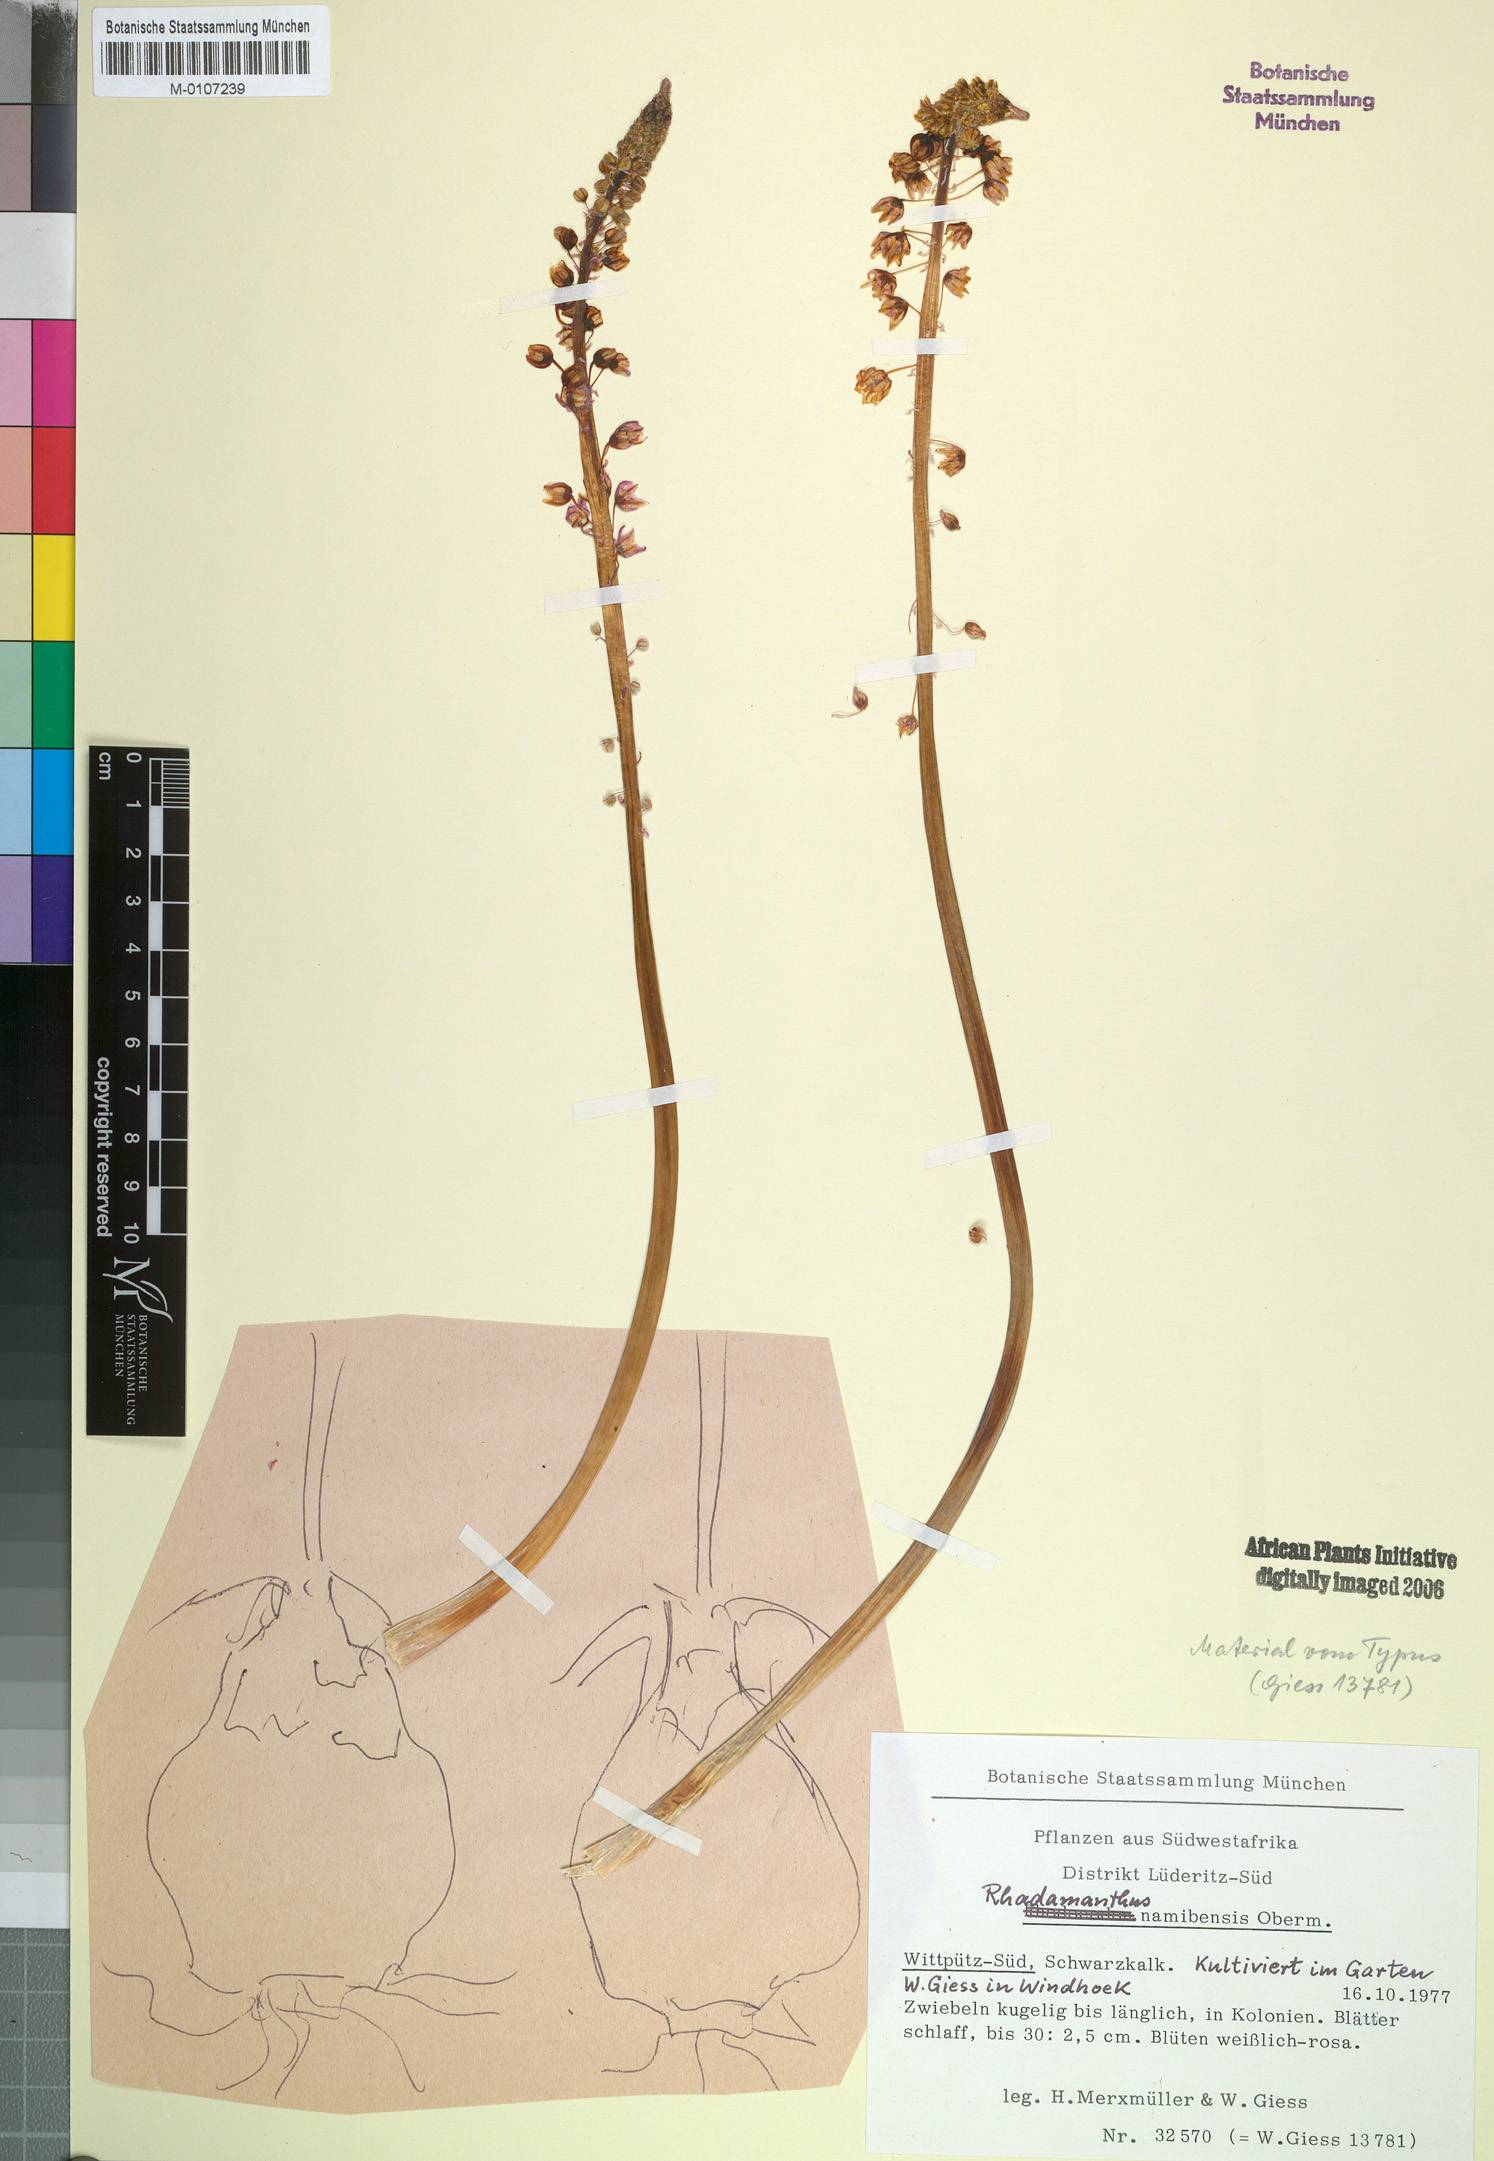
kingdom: Plantae
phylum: Tracheophyta
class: Liliopsida
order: Asparagales
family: Asparagaceae
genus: Drimia
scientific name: Drimia namibensis
